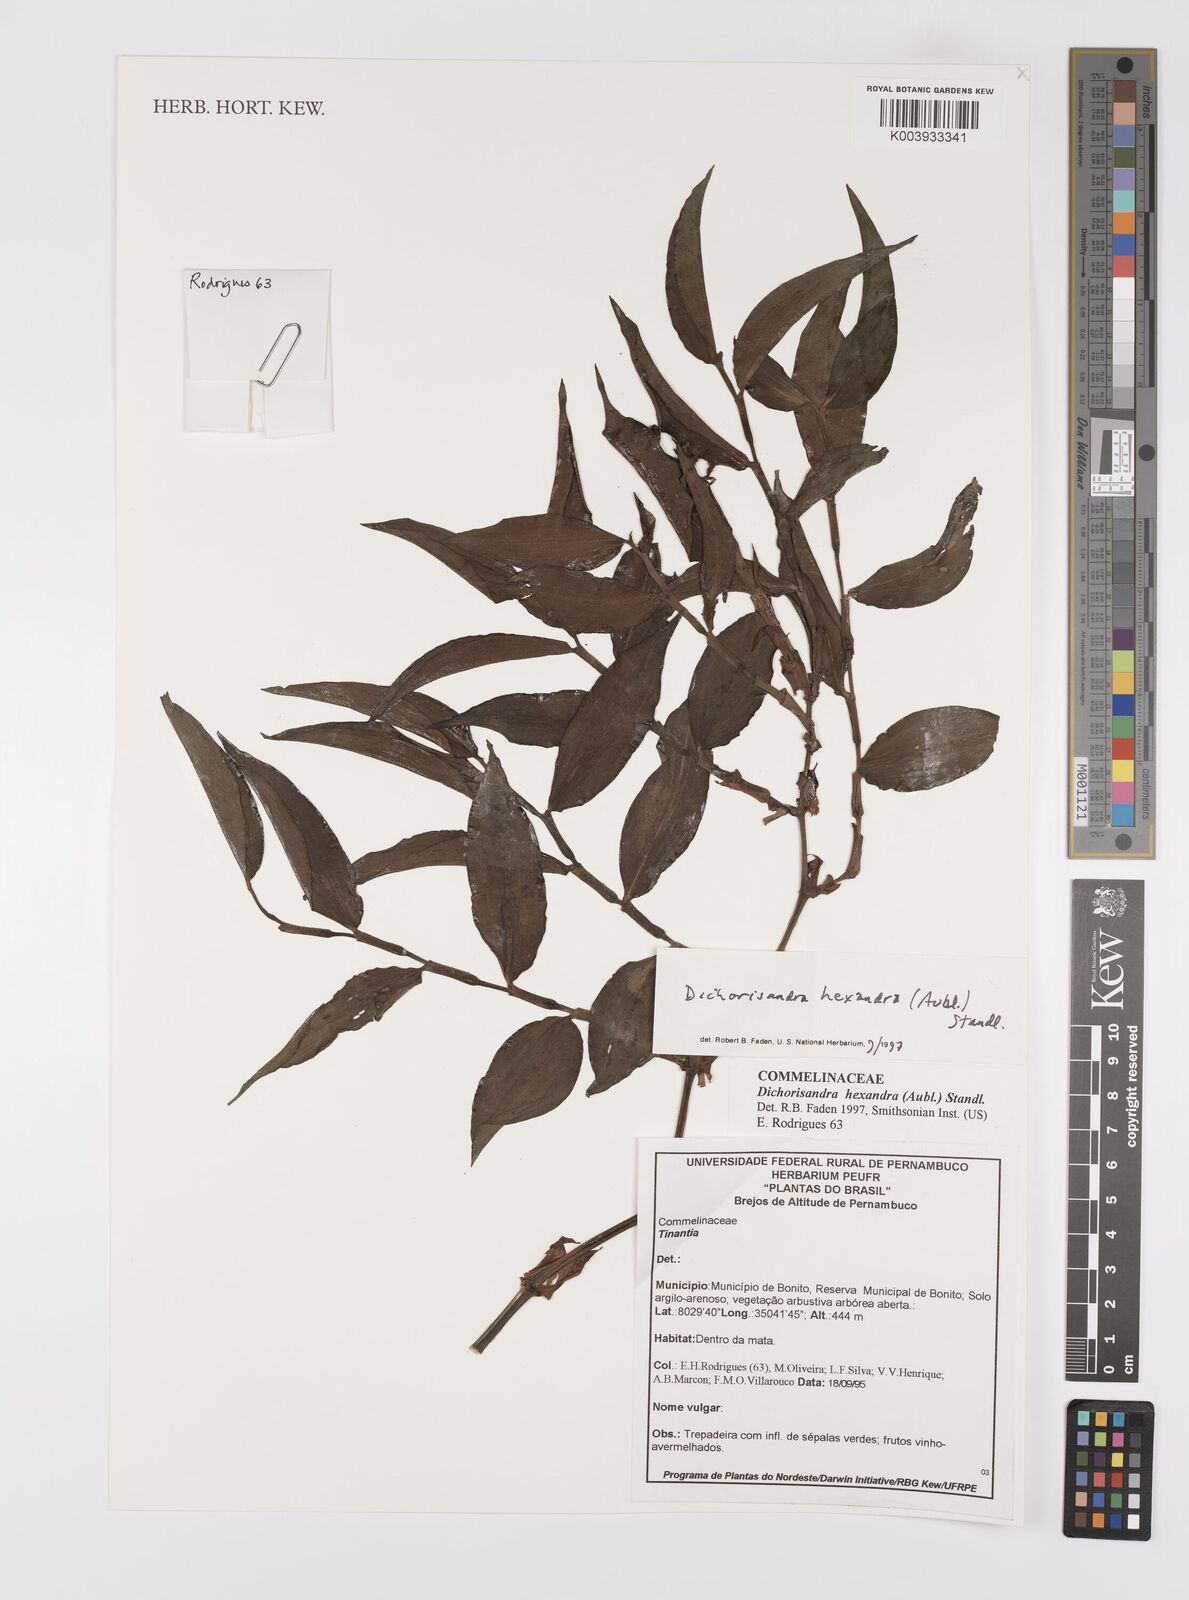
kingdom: Plantae
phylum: Tracheophyta
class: Liliopsida
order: Commelinales
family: Commelinaceae
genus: Dichorisandra
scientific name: Dichorisandra
